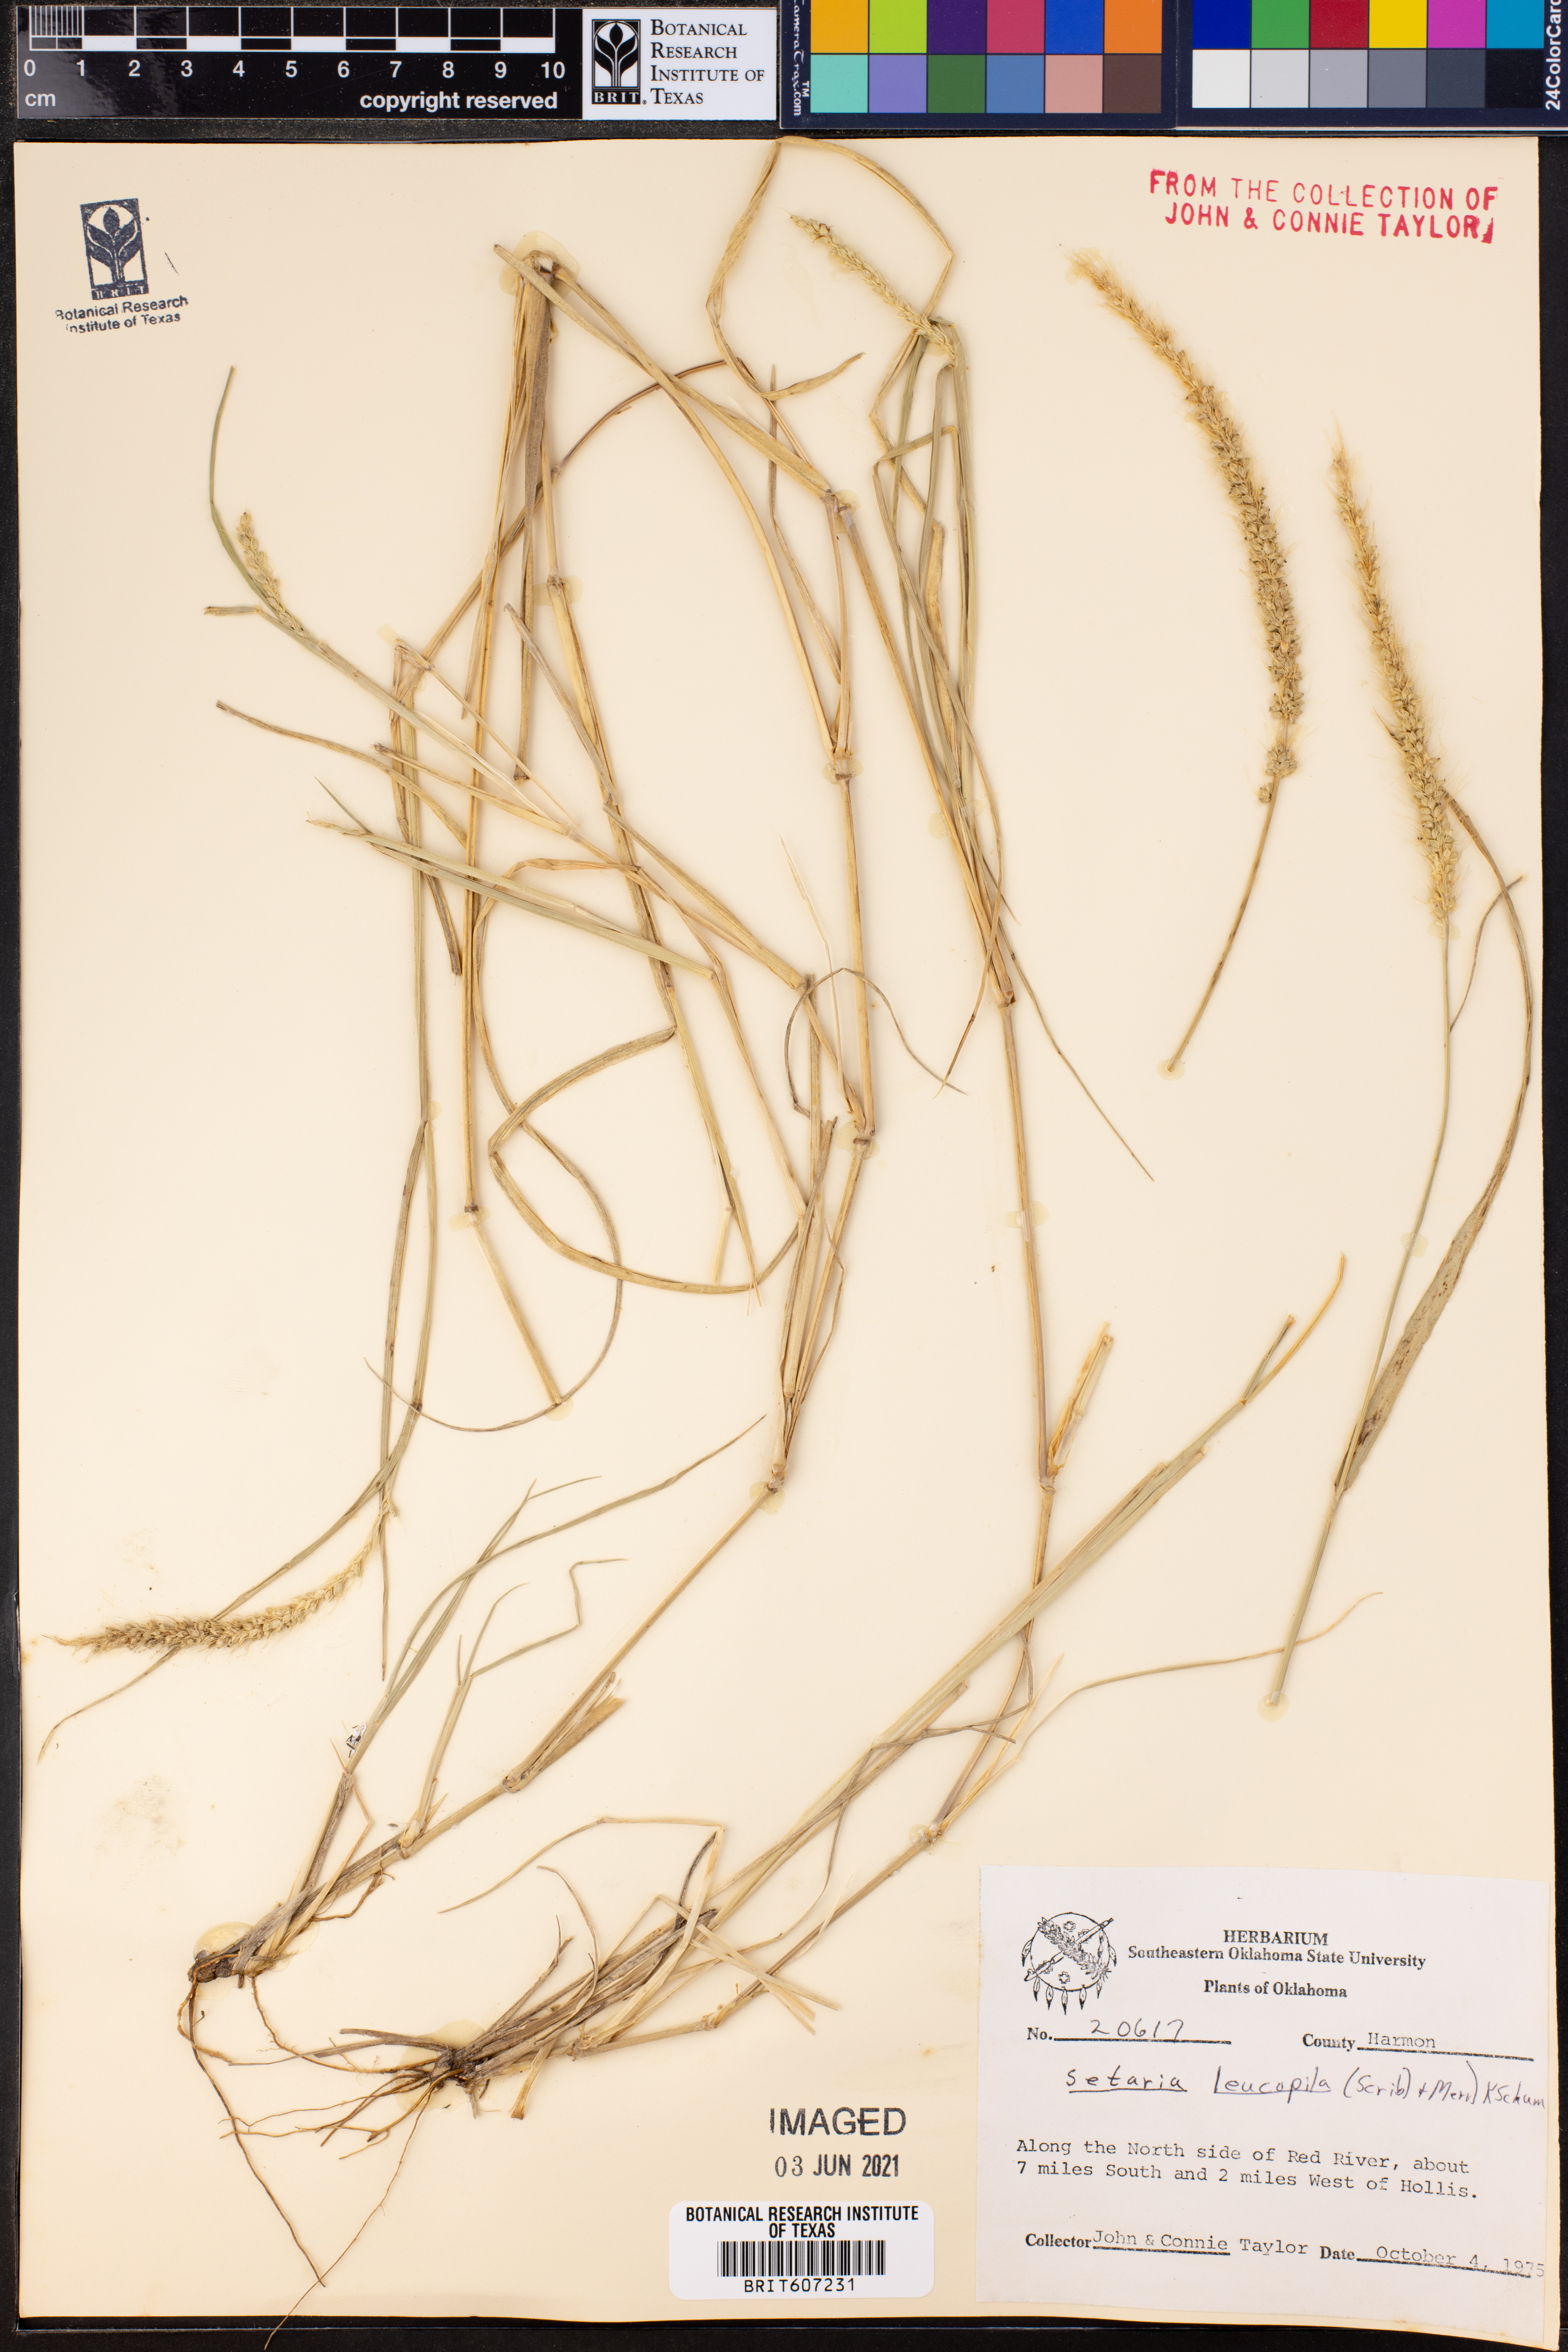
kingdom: Plantae
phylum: Tracheophyta
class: Liliopsida
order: Poales
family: Poaceae
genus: Setaria
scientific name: Setaria leucopila
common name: Plains bristle grass
